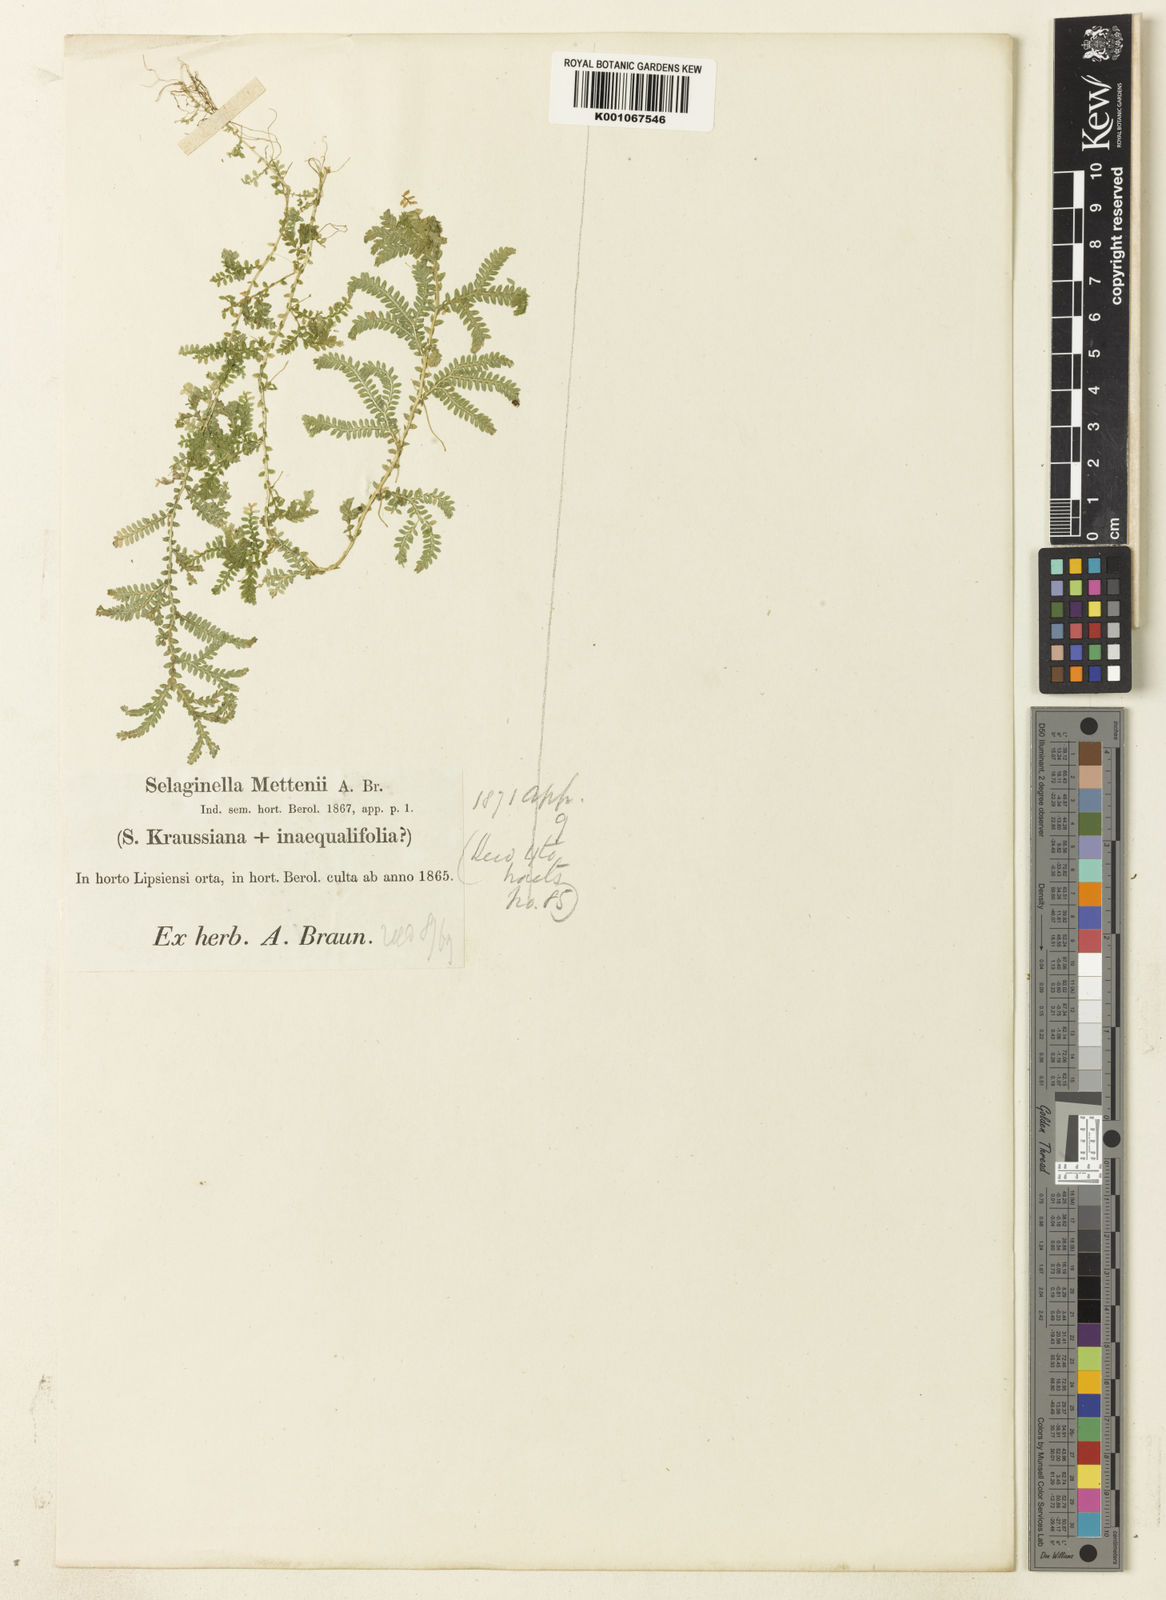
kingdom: Plantae
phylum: Tracheophyta
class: Lycopodiopsida
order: Selaginellales
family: Selaginellaceae
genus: Selaginella
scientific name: Selaginella semicordata
